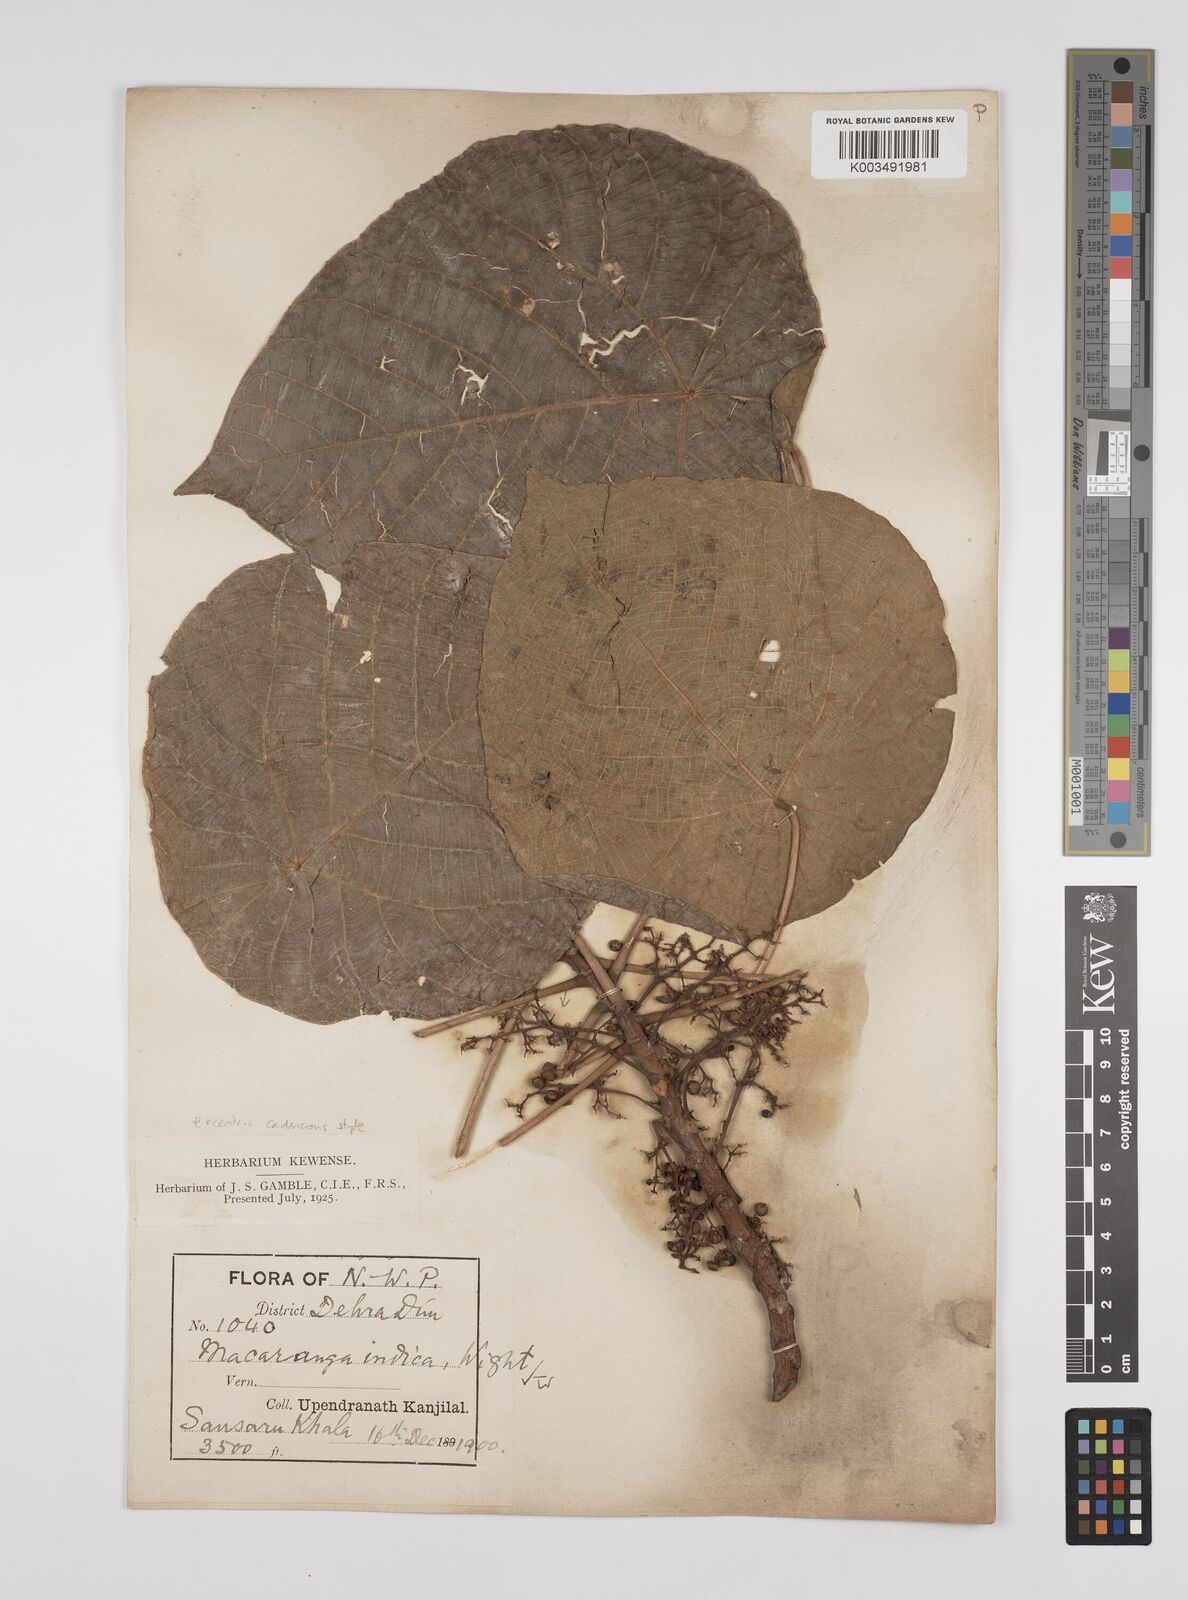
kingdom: Plantae
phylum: Tracheophyta
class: Magnoliopsida
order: Malpighiales
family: Euphorbiaceae
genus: Macaranga
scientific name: Macaranga indica
